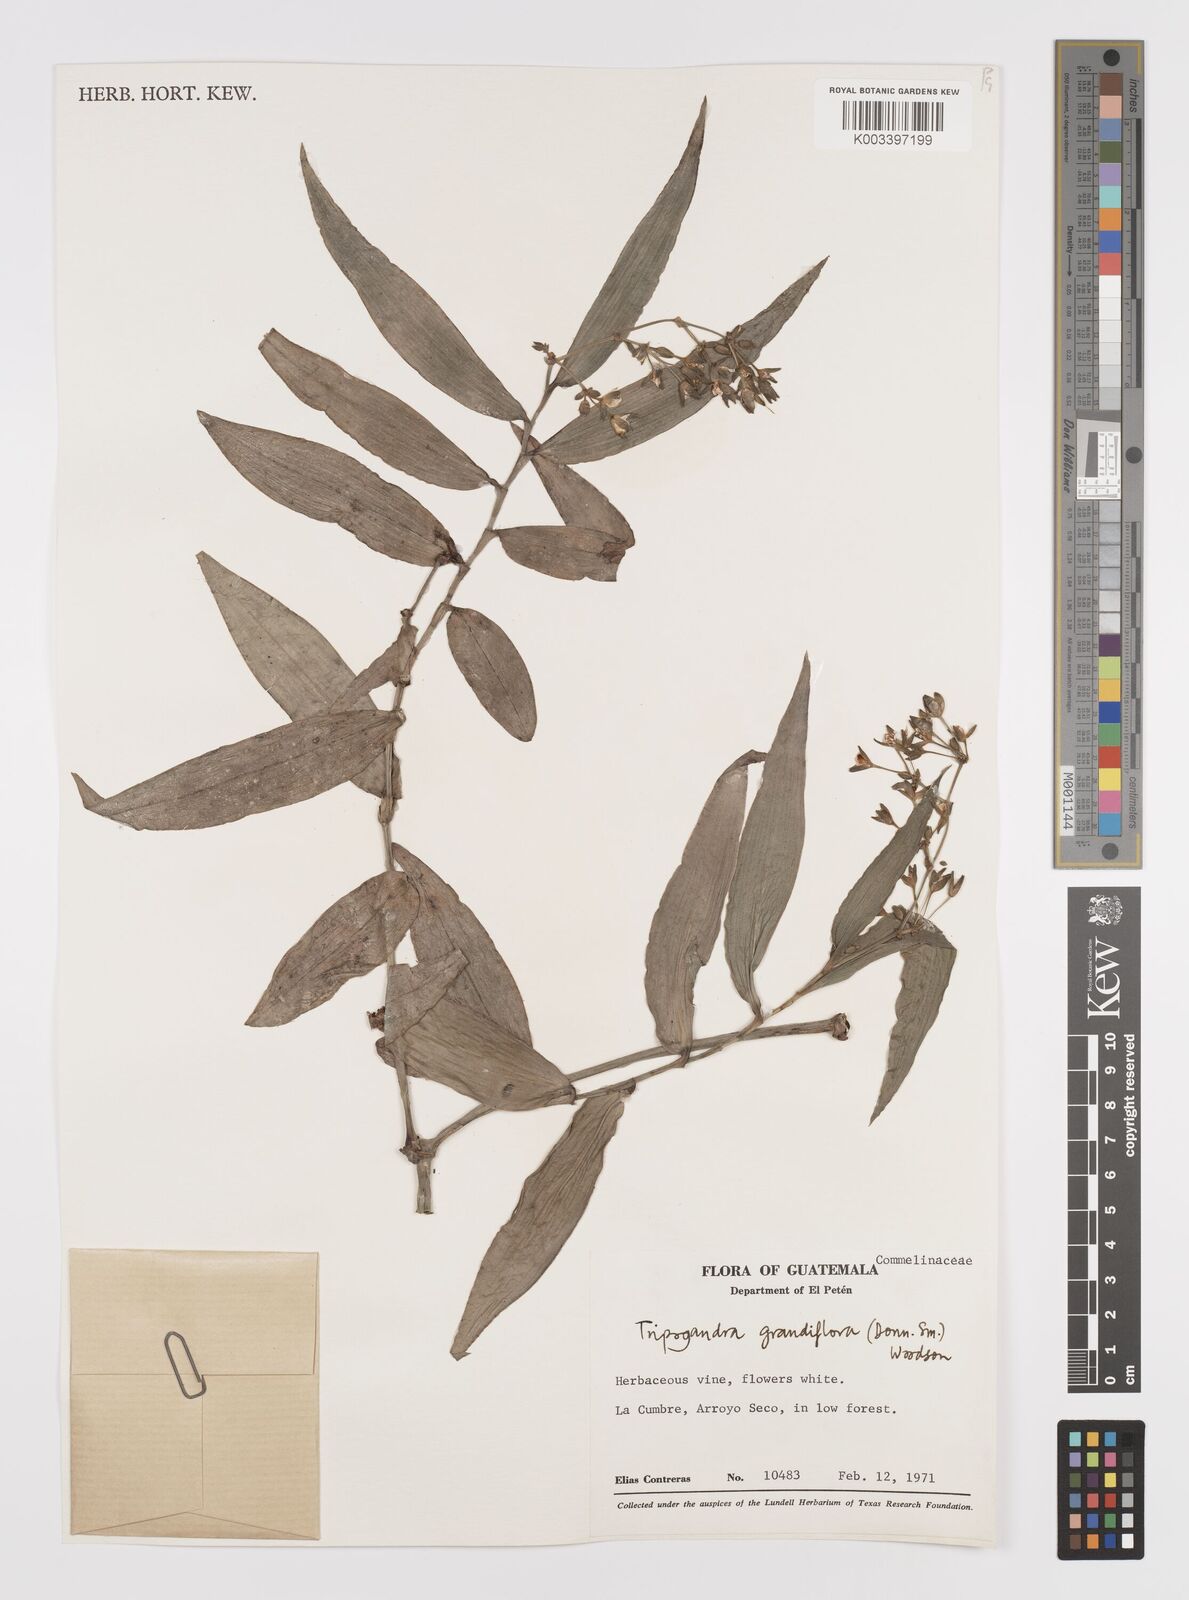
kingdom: Plantae
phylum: Tracheophyta
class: Liliopsida
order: Commelinales
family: Commelinaceae
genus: Callisia
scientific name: Callisia grandiflora
